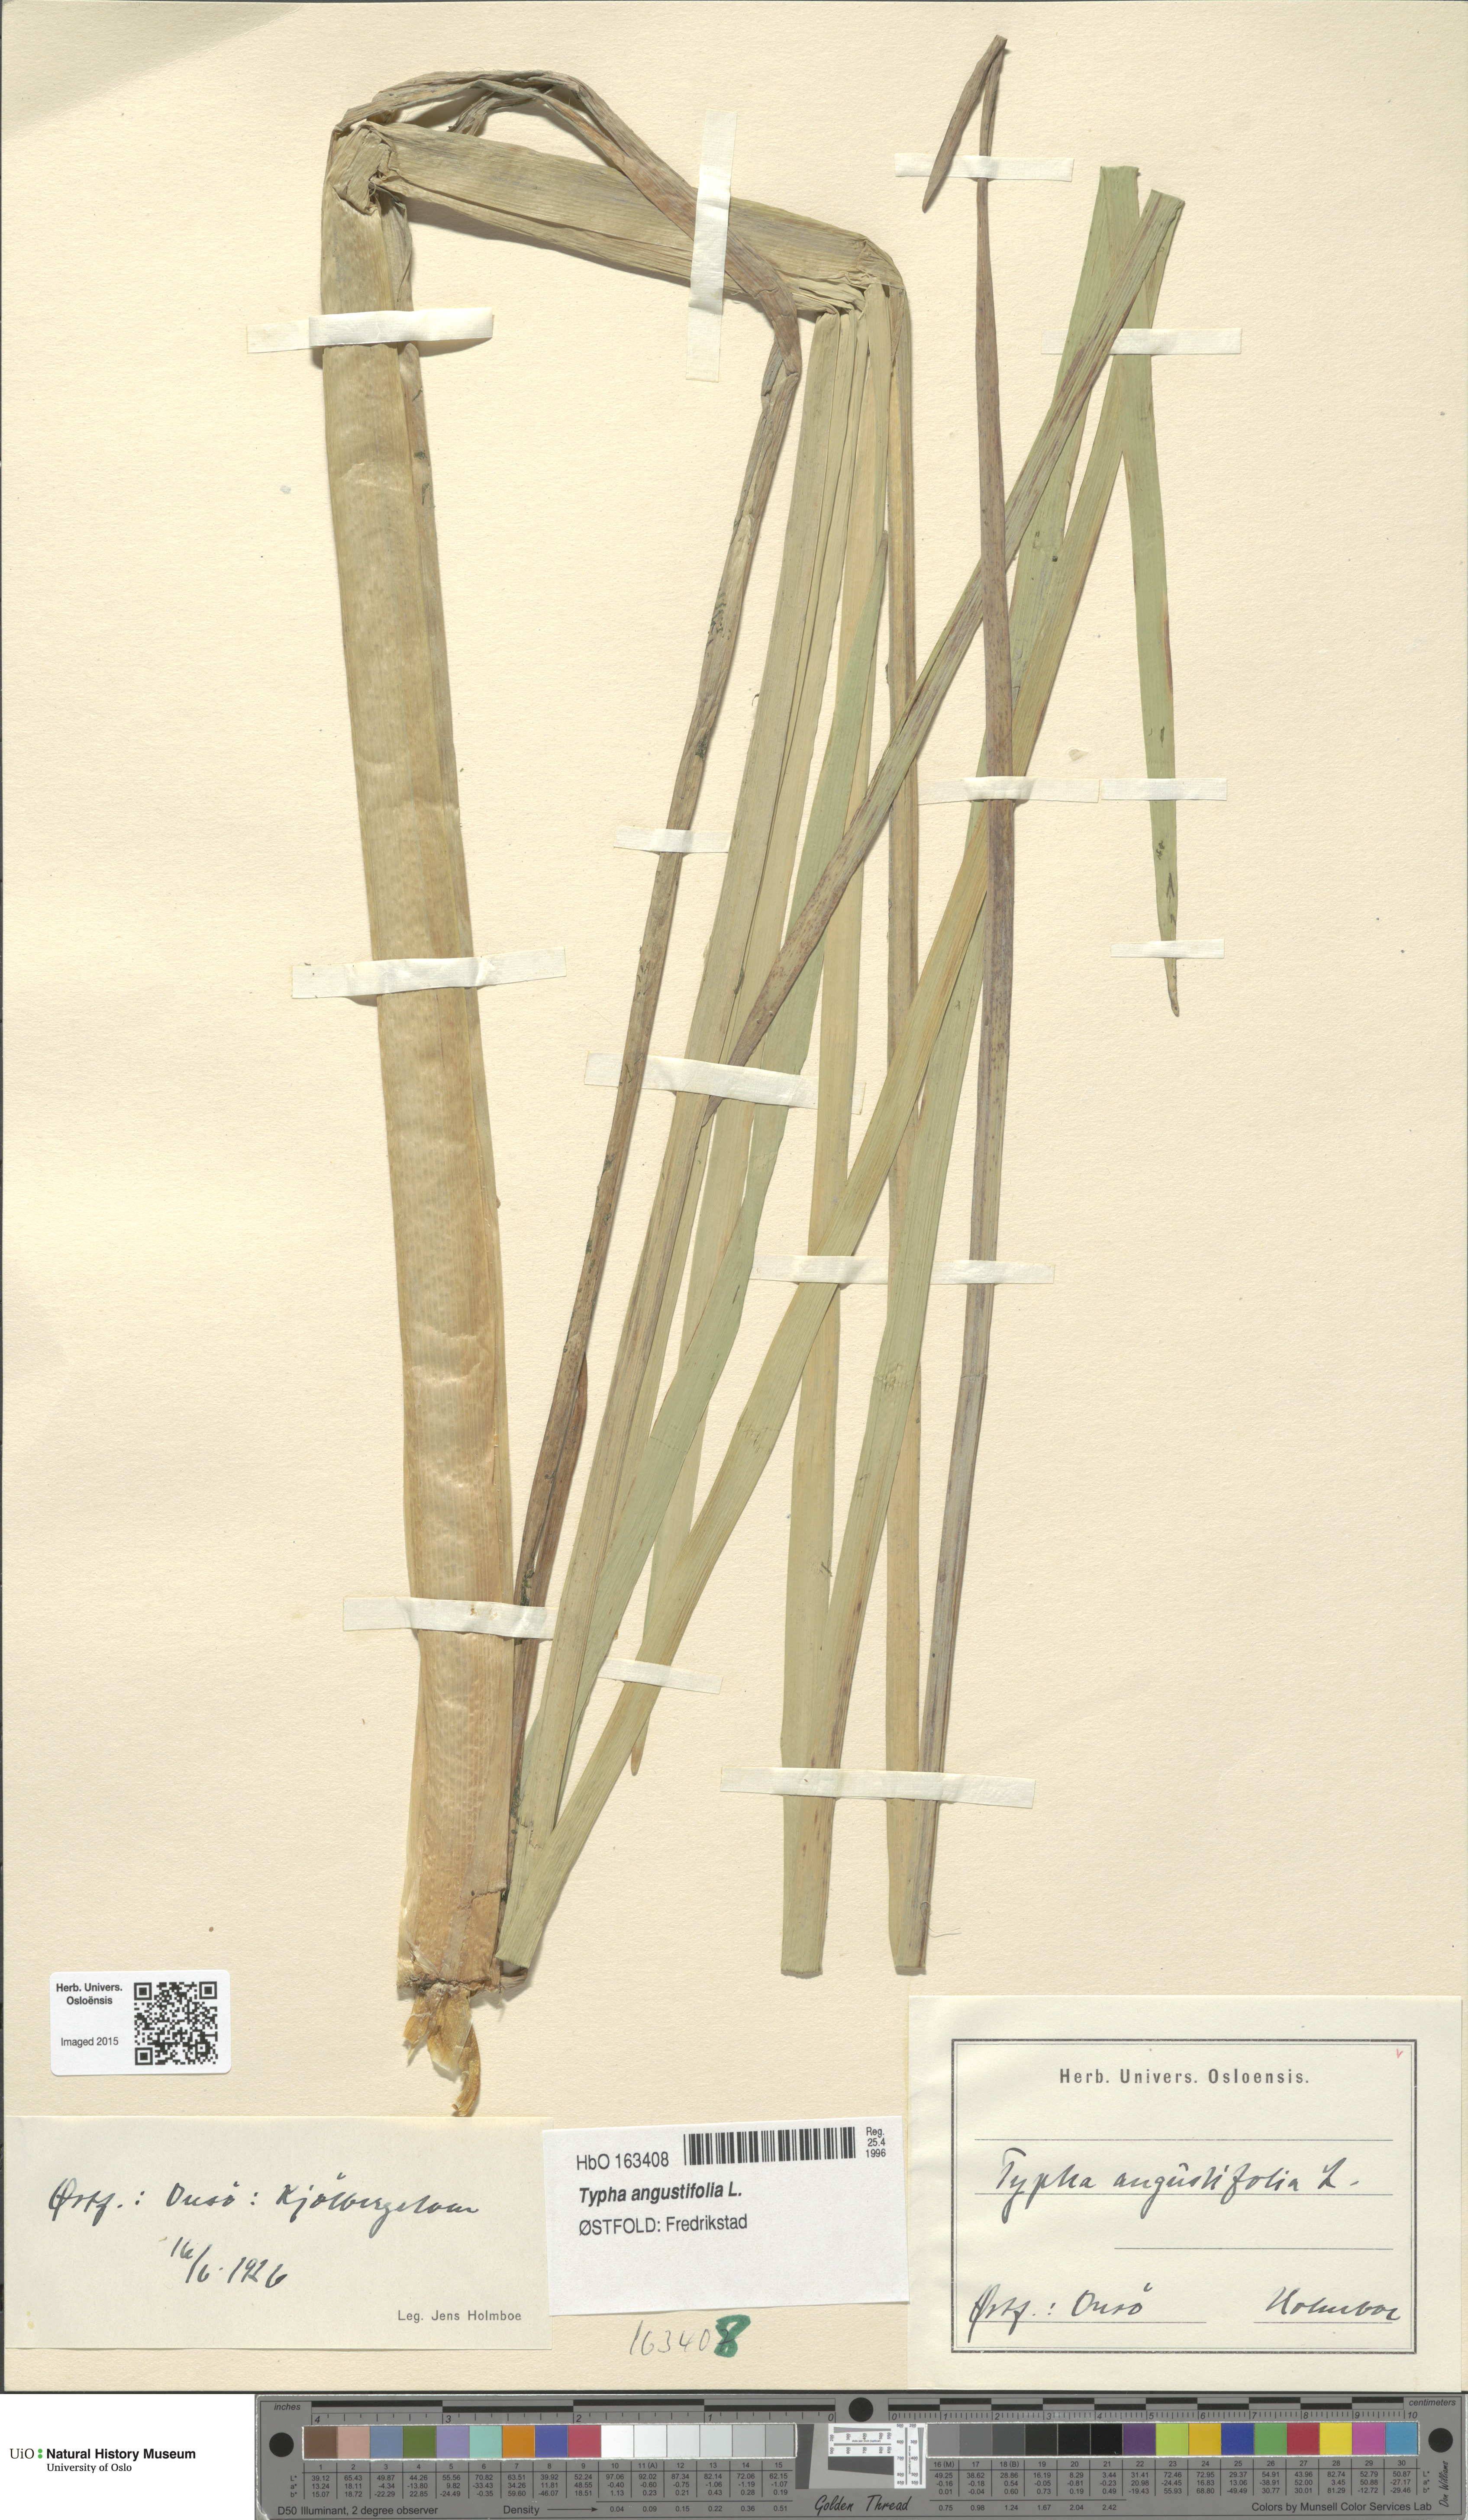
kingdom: Plantae
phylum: Tracheophyta
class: Liliopsida
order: Poales
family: Typhaceae
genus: Typha
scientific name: Typha angustifolia
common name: Lesser bulrush
